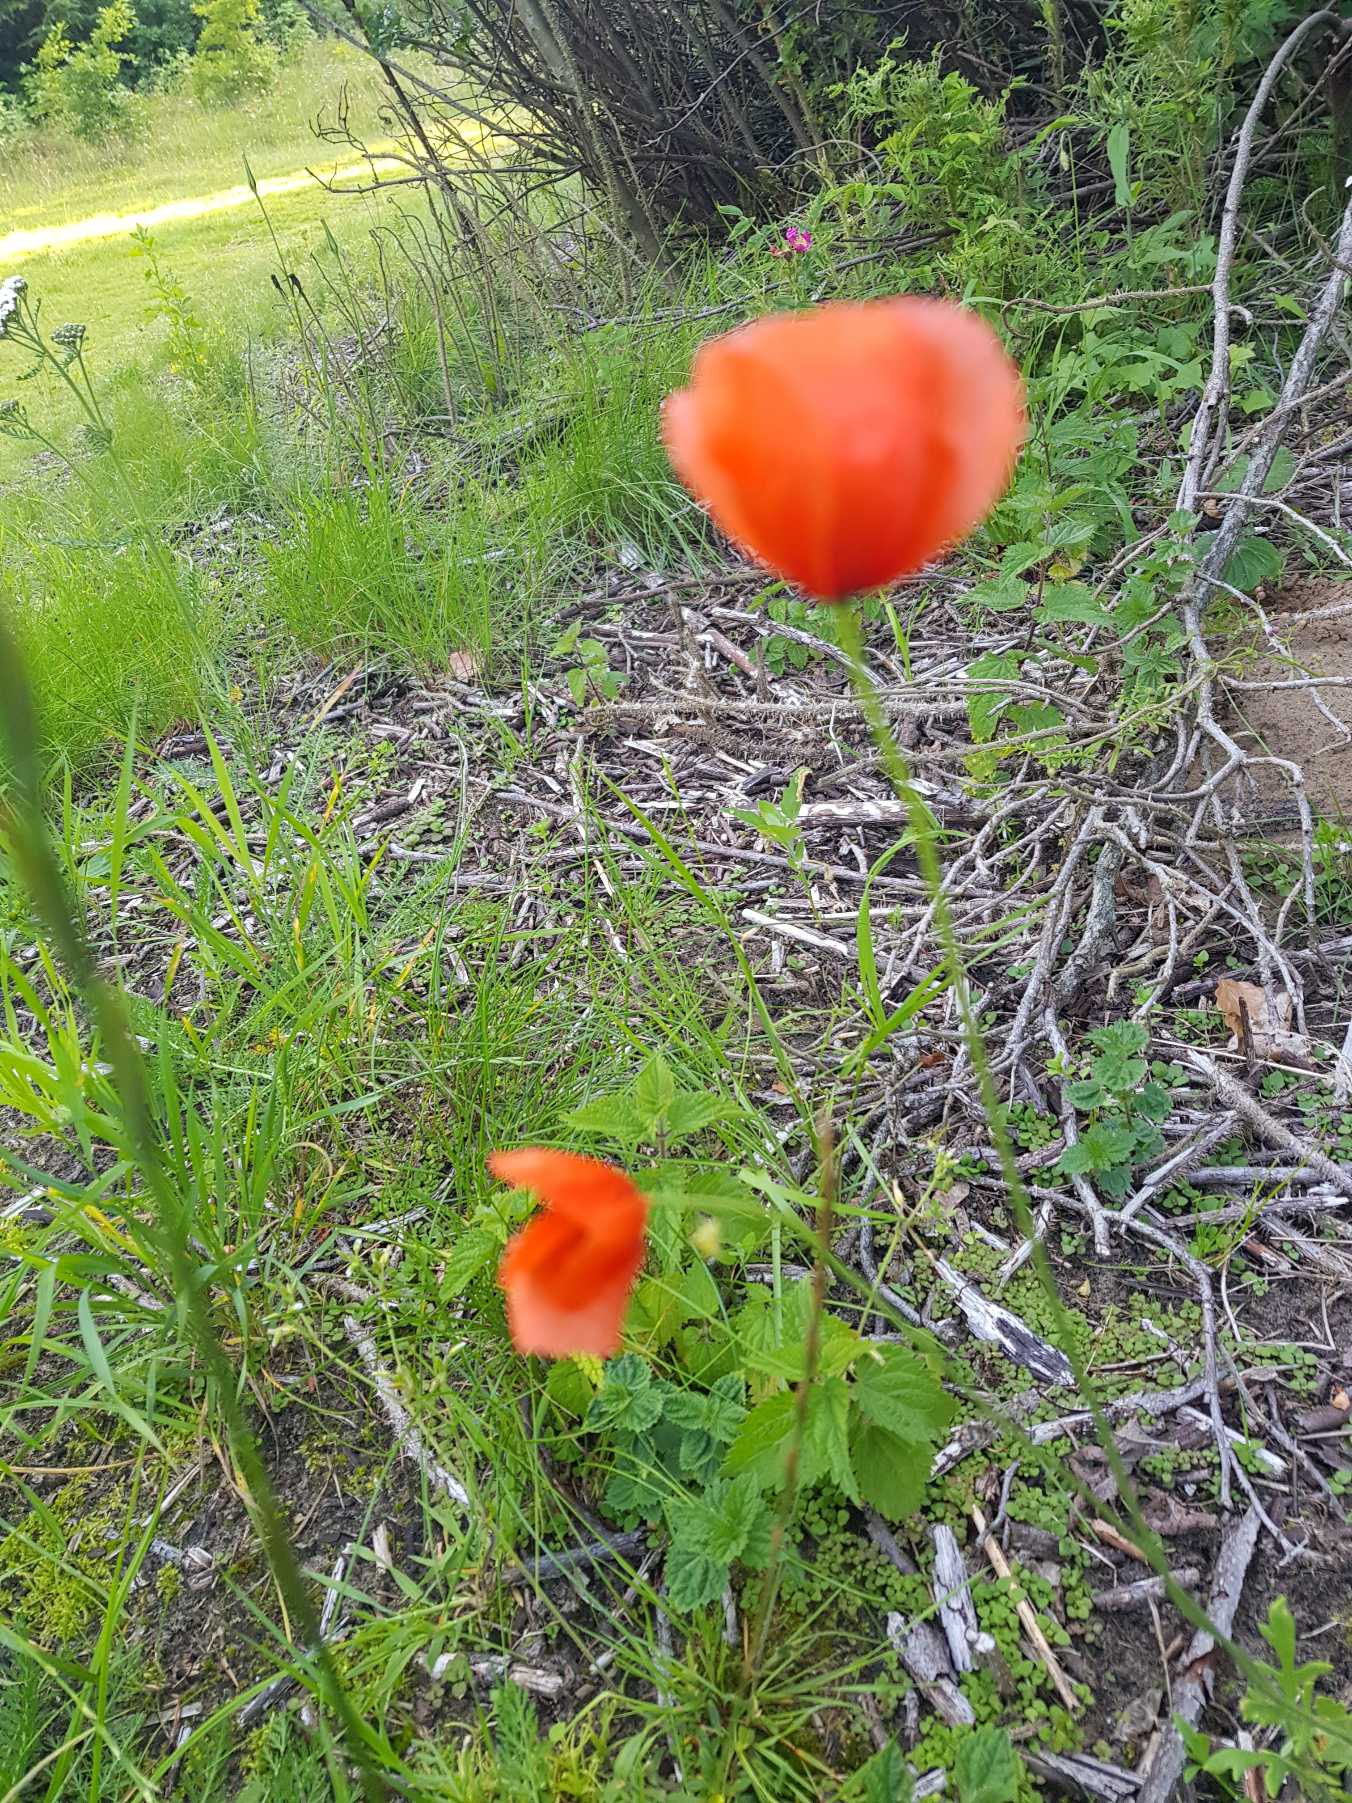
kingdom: Plantae
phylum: Tracheophyta
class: Magnoliopsida
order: Ranunculales
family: Papaveraceae
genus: Papaver
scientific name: Papaver dubium
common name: Gærde-valmue
